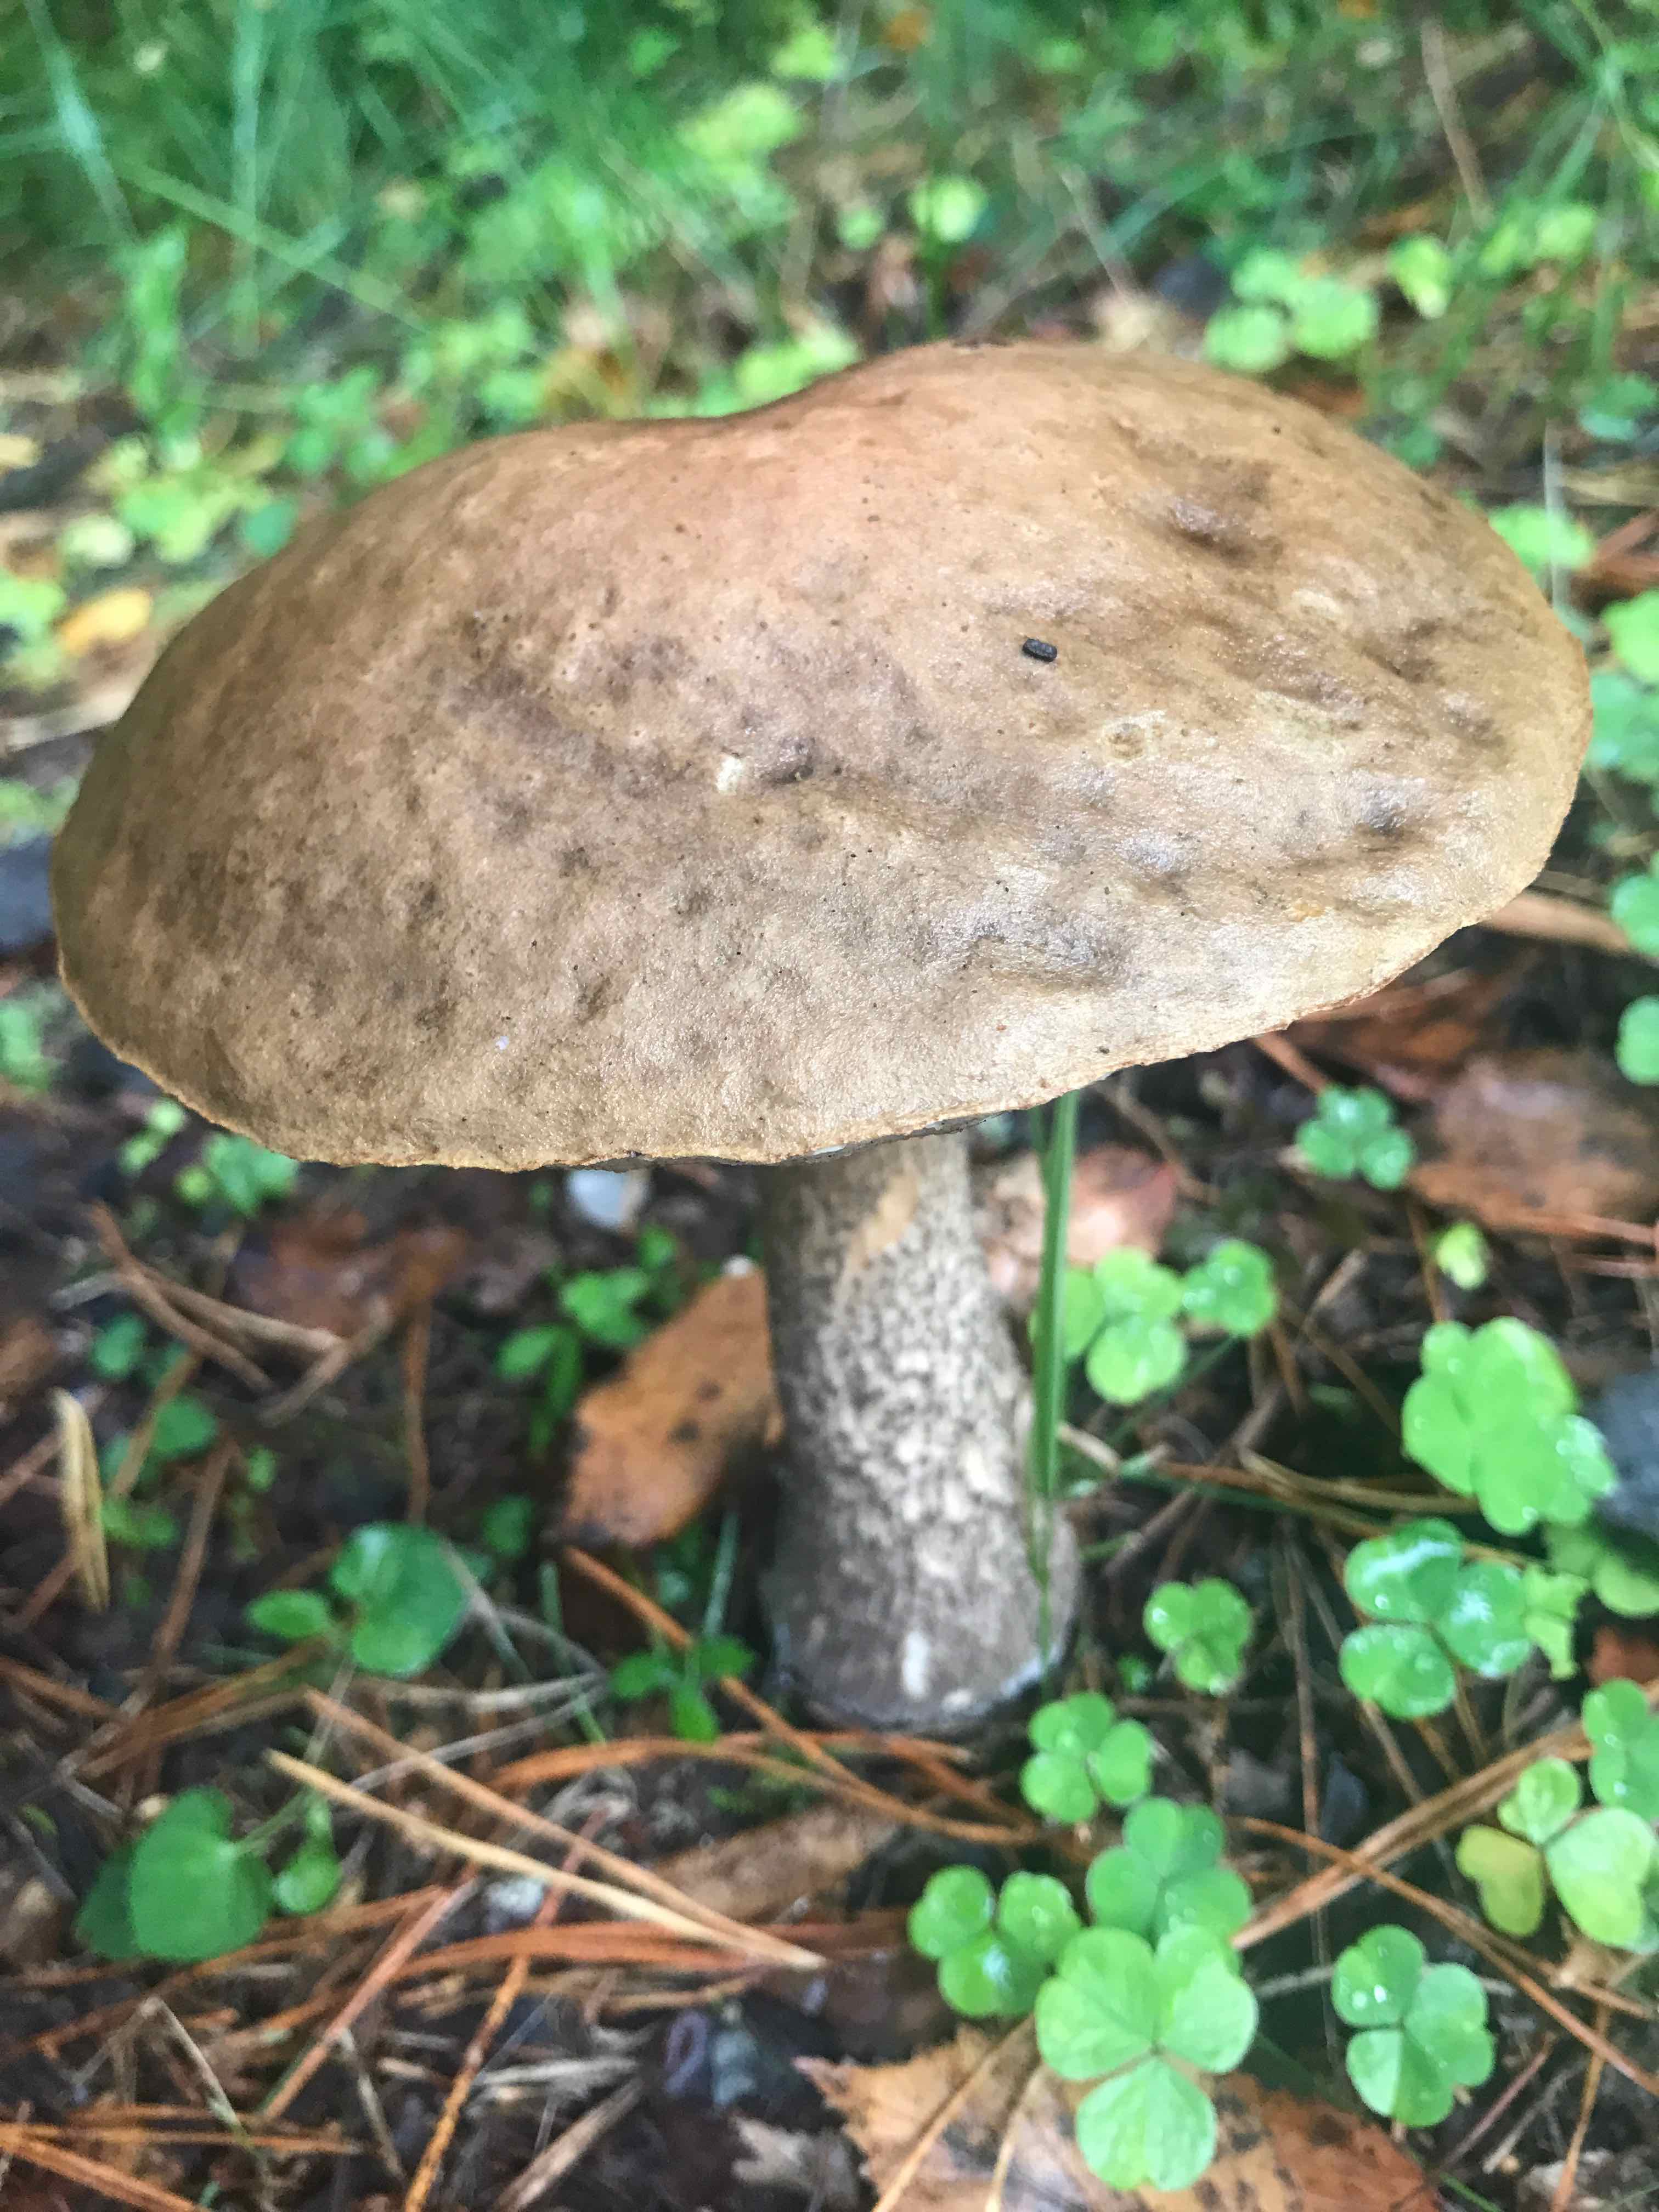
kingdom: Fungi
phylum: Basidiomycota
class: Agaricomycetes
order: Boletales
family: Boletaceae
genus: Leccinum
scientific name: Leccinum
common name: skælrørhat
